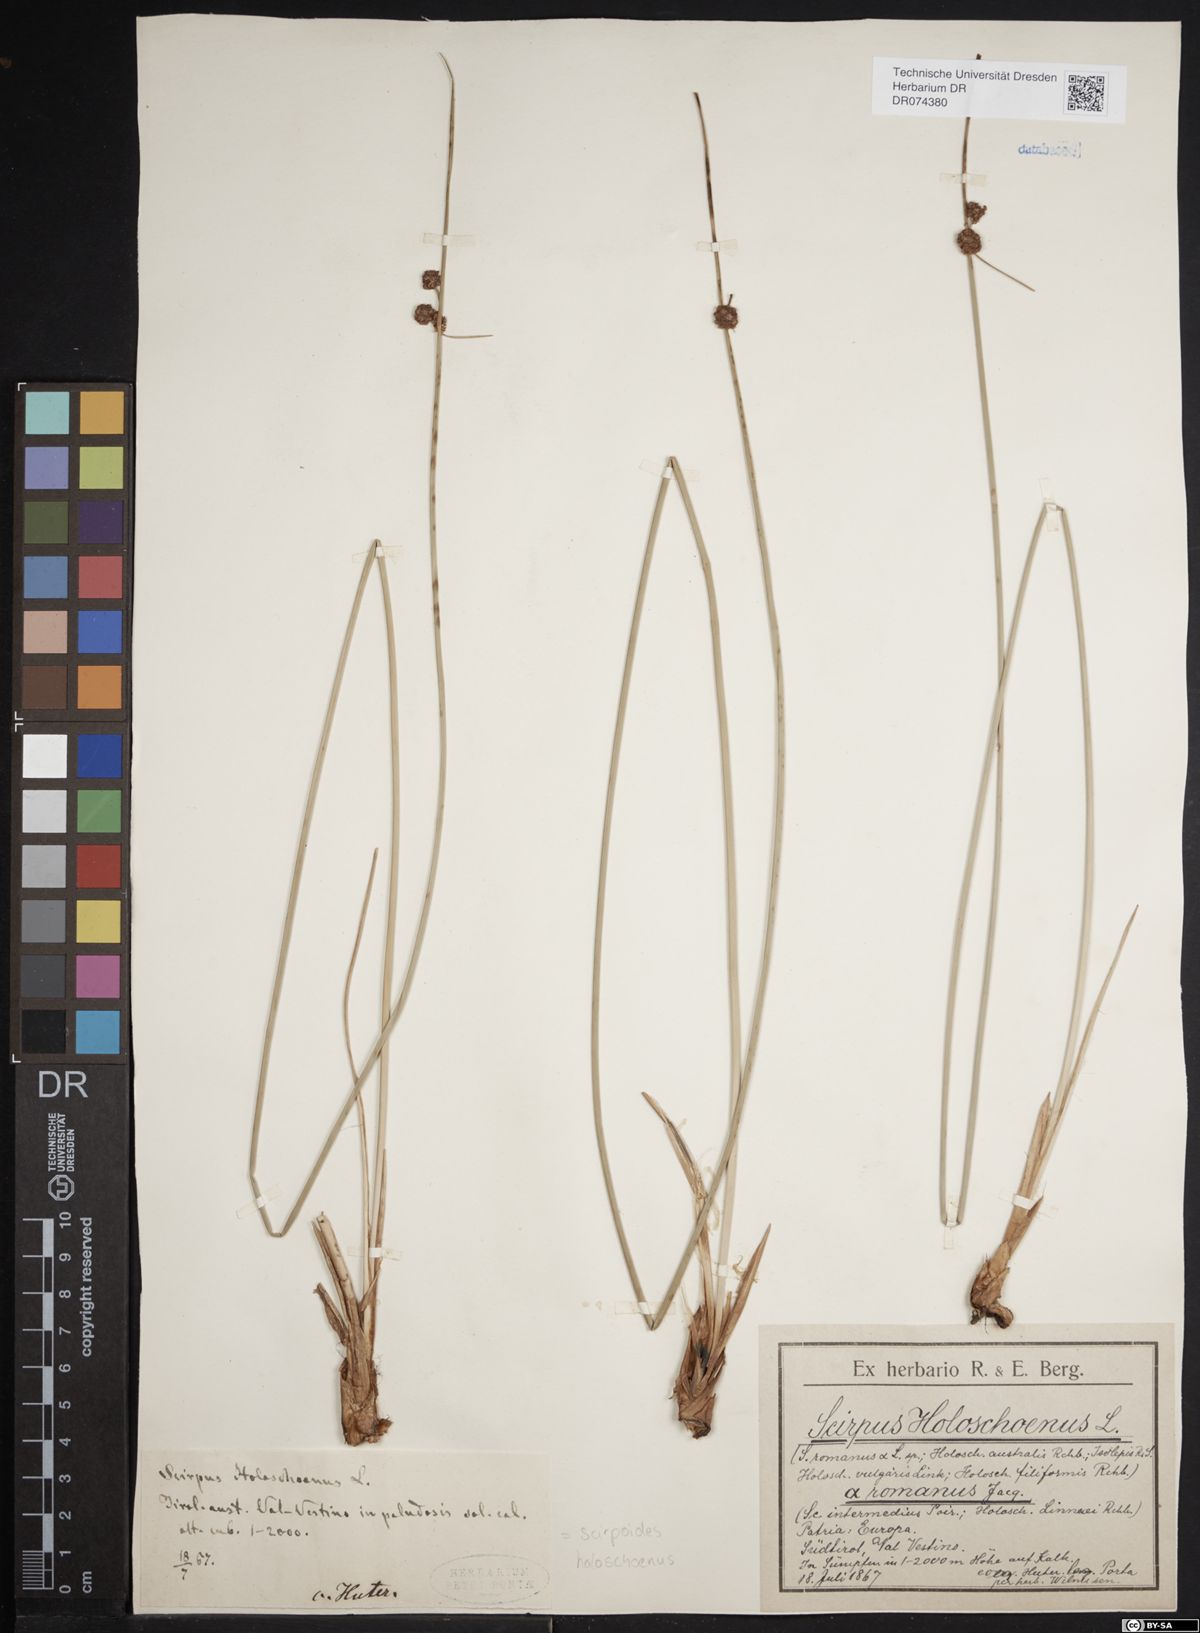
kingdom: Plantae
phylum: Tracheophyta
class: Liliopsida
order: Poales
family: Cyperaceae
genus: Scirpoides
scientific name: Scirpoides holoschoenus
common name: Round-headed club-rush
